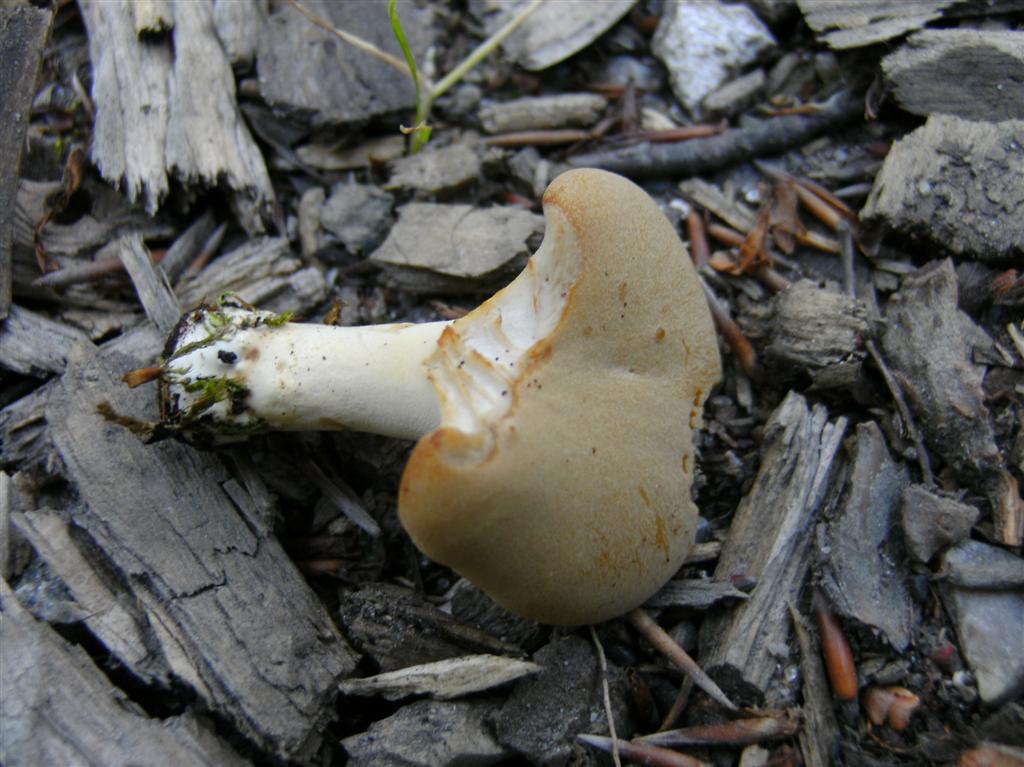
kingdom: Fungi
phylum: Basidiomycota
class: Agaricomycetes
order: Polyporales
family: Polyporaceae
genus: Cerioporus
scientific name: Cerioporus varius
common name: foranderlig stilkporesvamp
